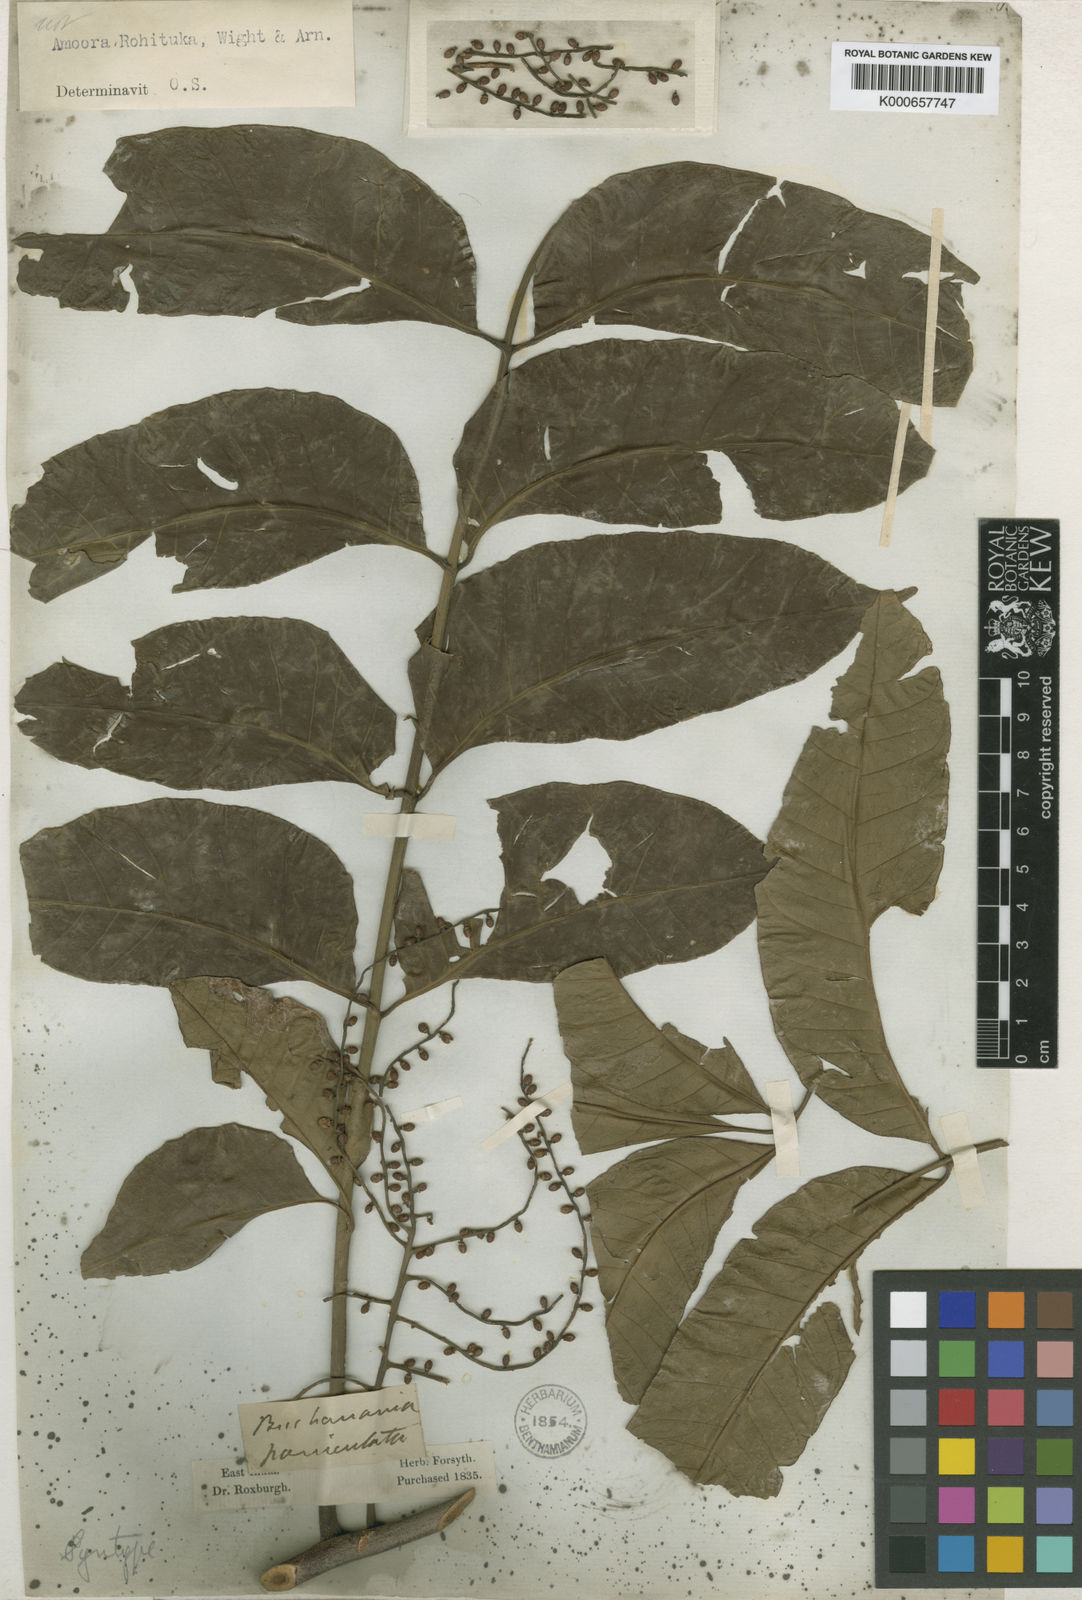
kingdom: Plantae
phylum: Tracheophyta
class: Magnoliopsida
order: Sapindales
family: Meliaceae
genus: Aphanamixis
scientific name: Aphanamixis polystachya
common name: Pithraj tree
